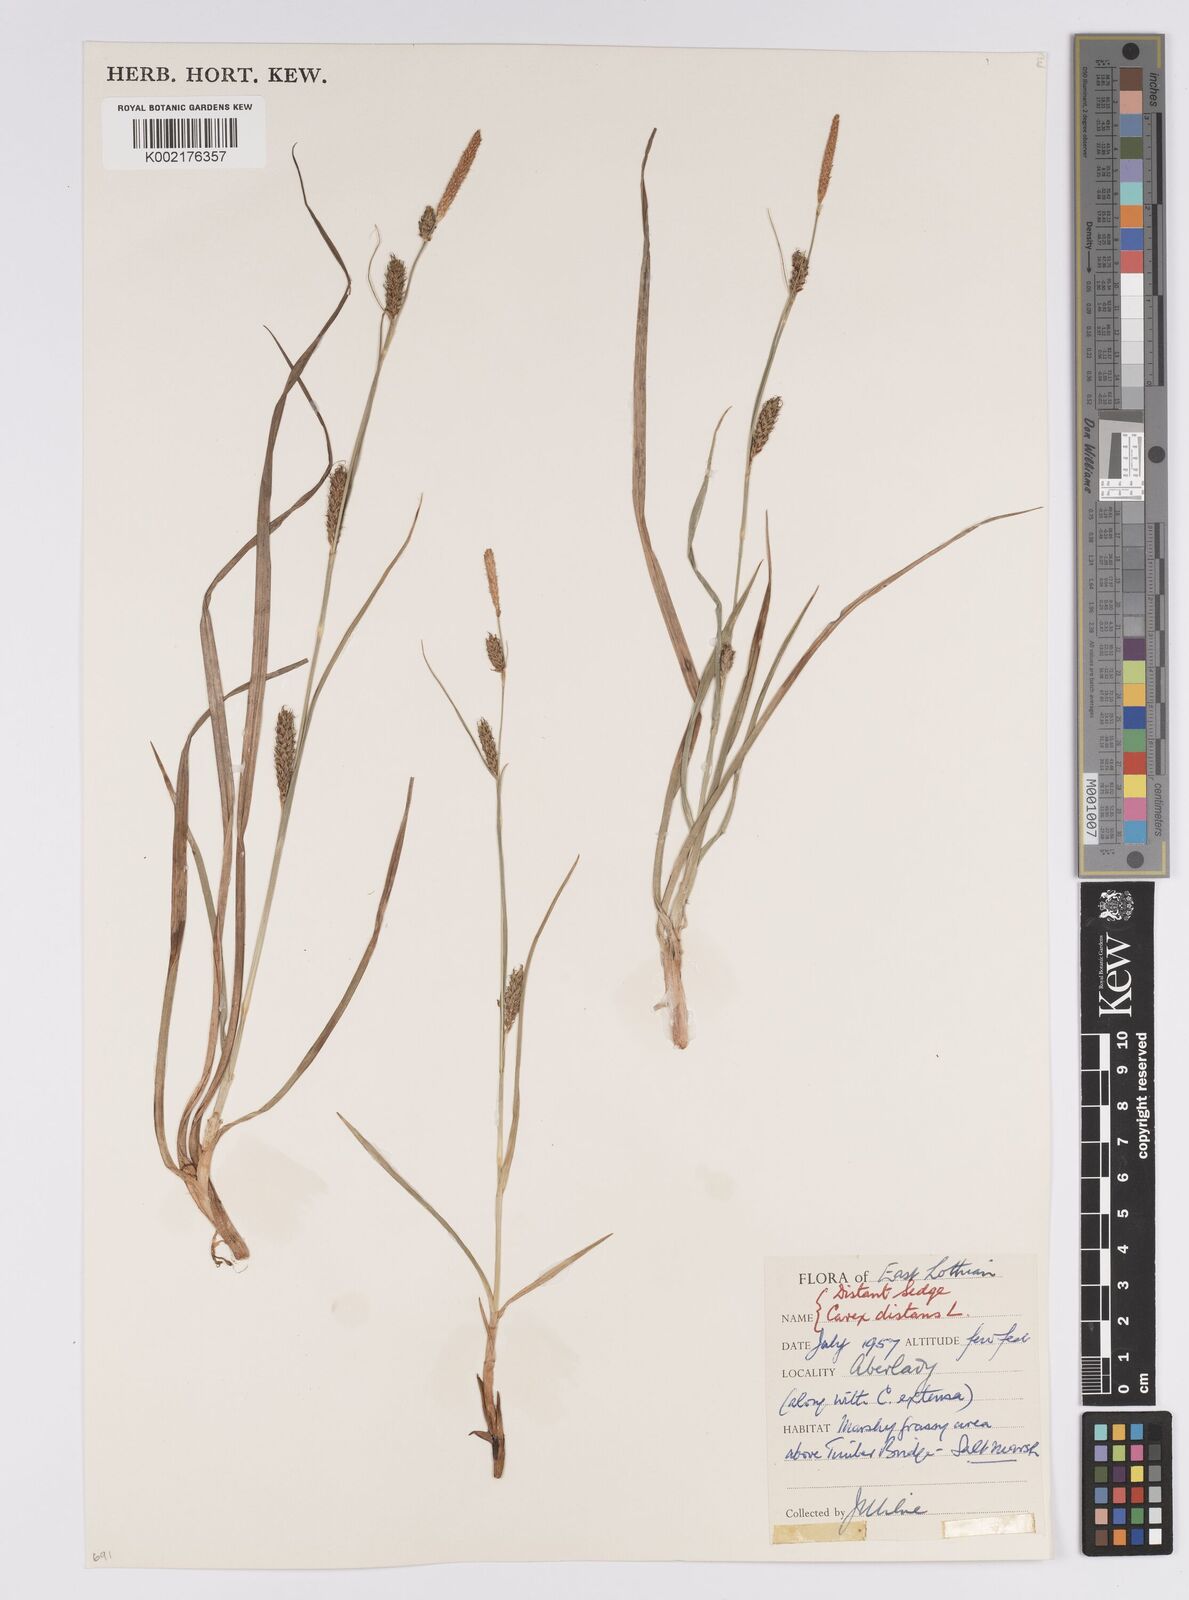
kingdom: Plantae
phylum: Tracheophyta
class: Liliopsida
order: Poales
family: Cyperaceae
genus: Carex
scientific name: Carex distans
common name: Distant sedge
